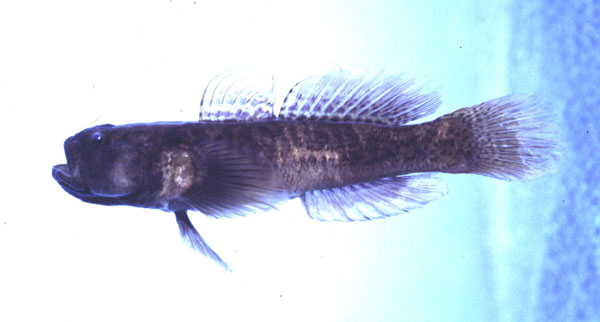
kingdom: Animalia
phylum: Chordata
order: Perciformes
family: Gobiidae
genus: Caffrogobius
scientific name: Caffrogobius gilchristi
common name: Prison goby
